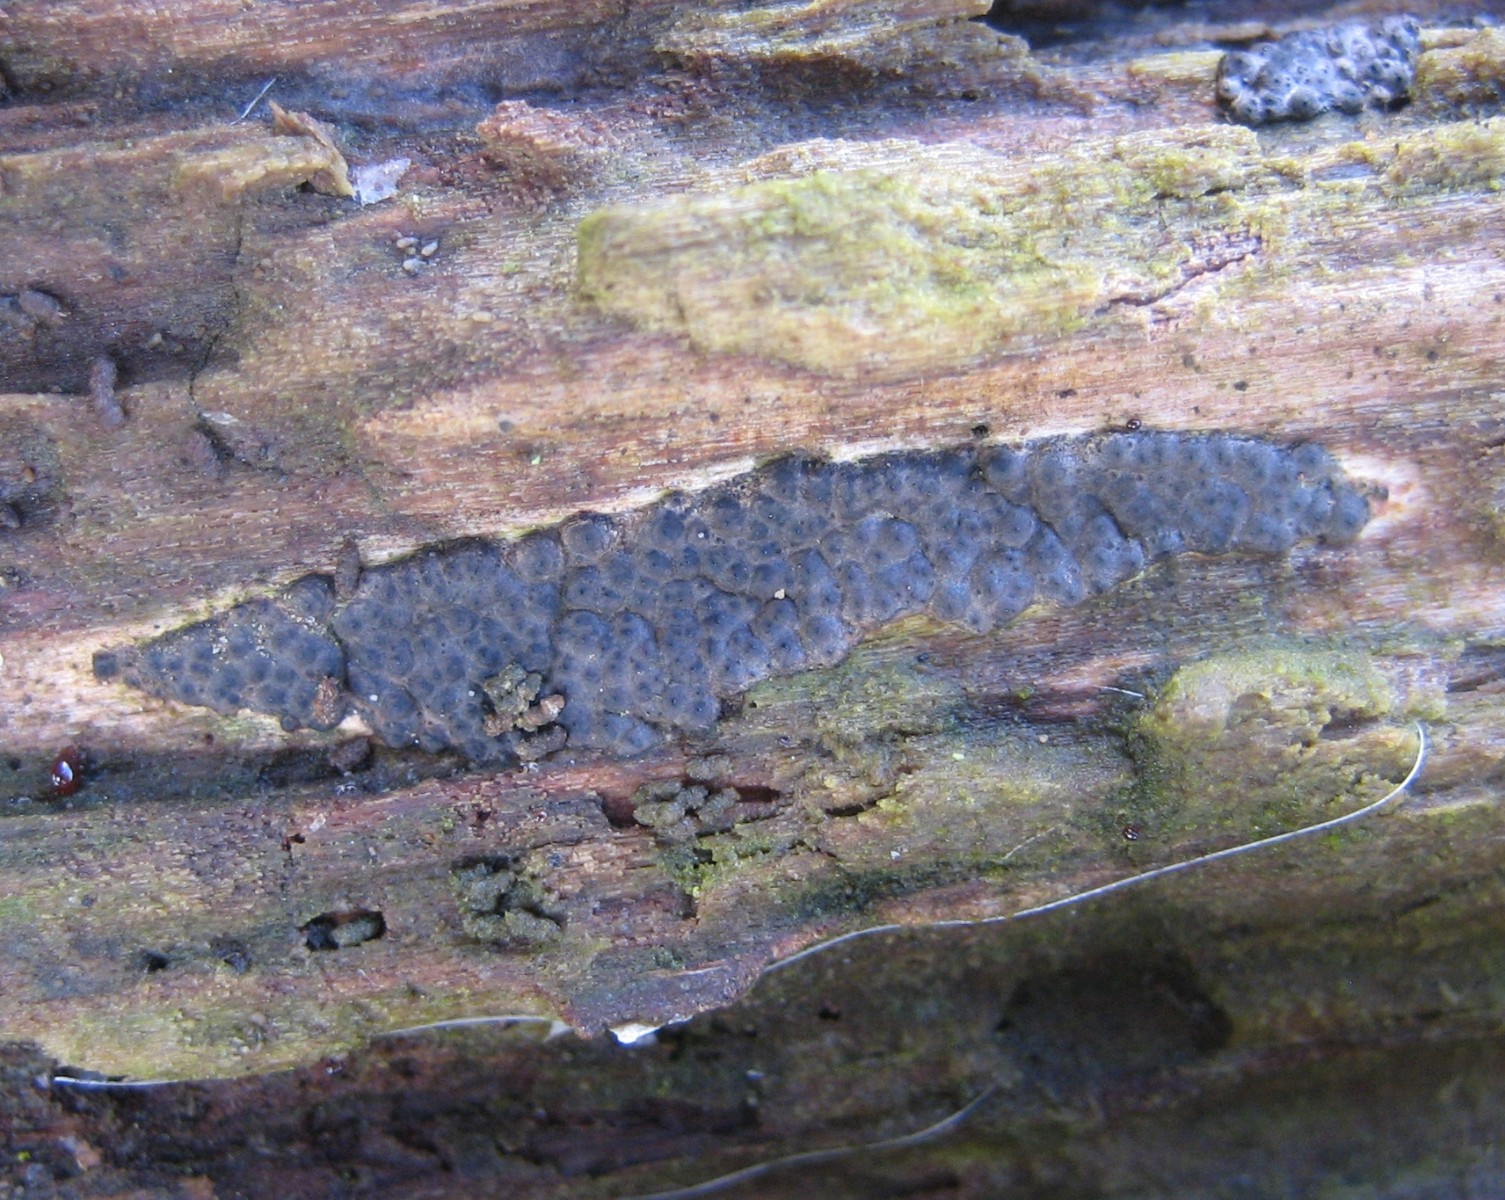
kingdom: Fungi
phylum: Ascomycota
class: Sordariomycetes
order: Xylariales
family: Xylariaceae
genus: Nemania
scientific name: Nemania
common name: kuldyne
